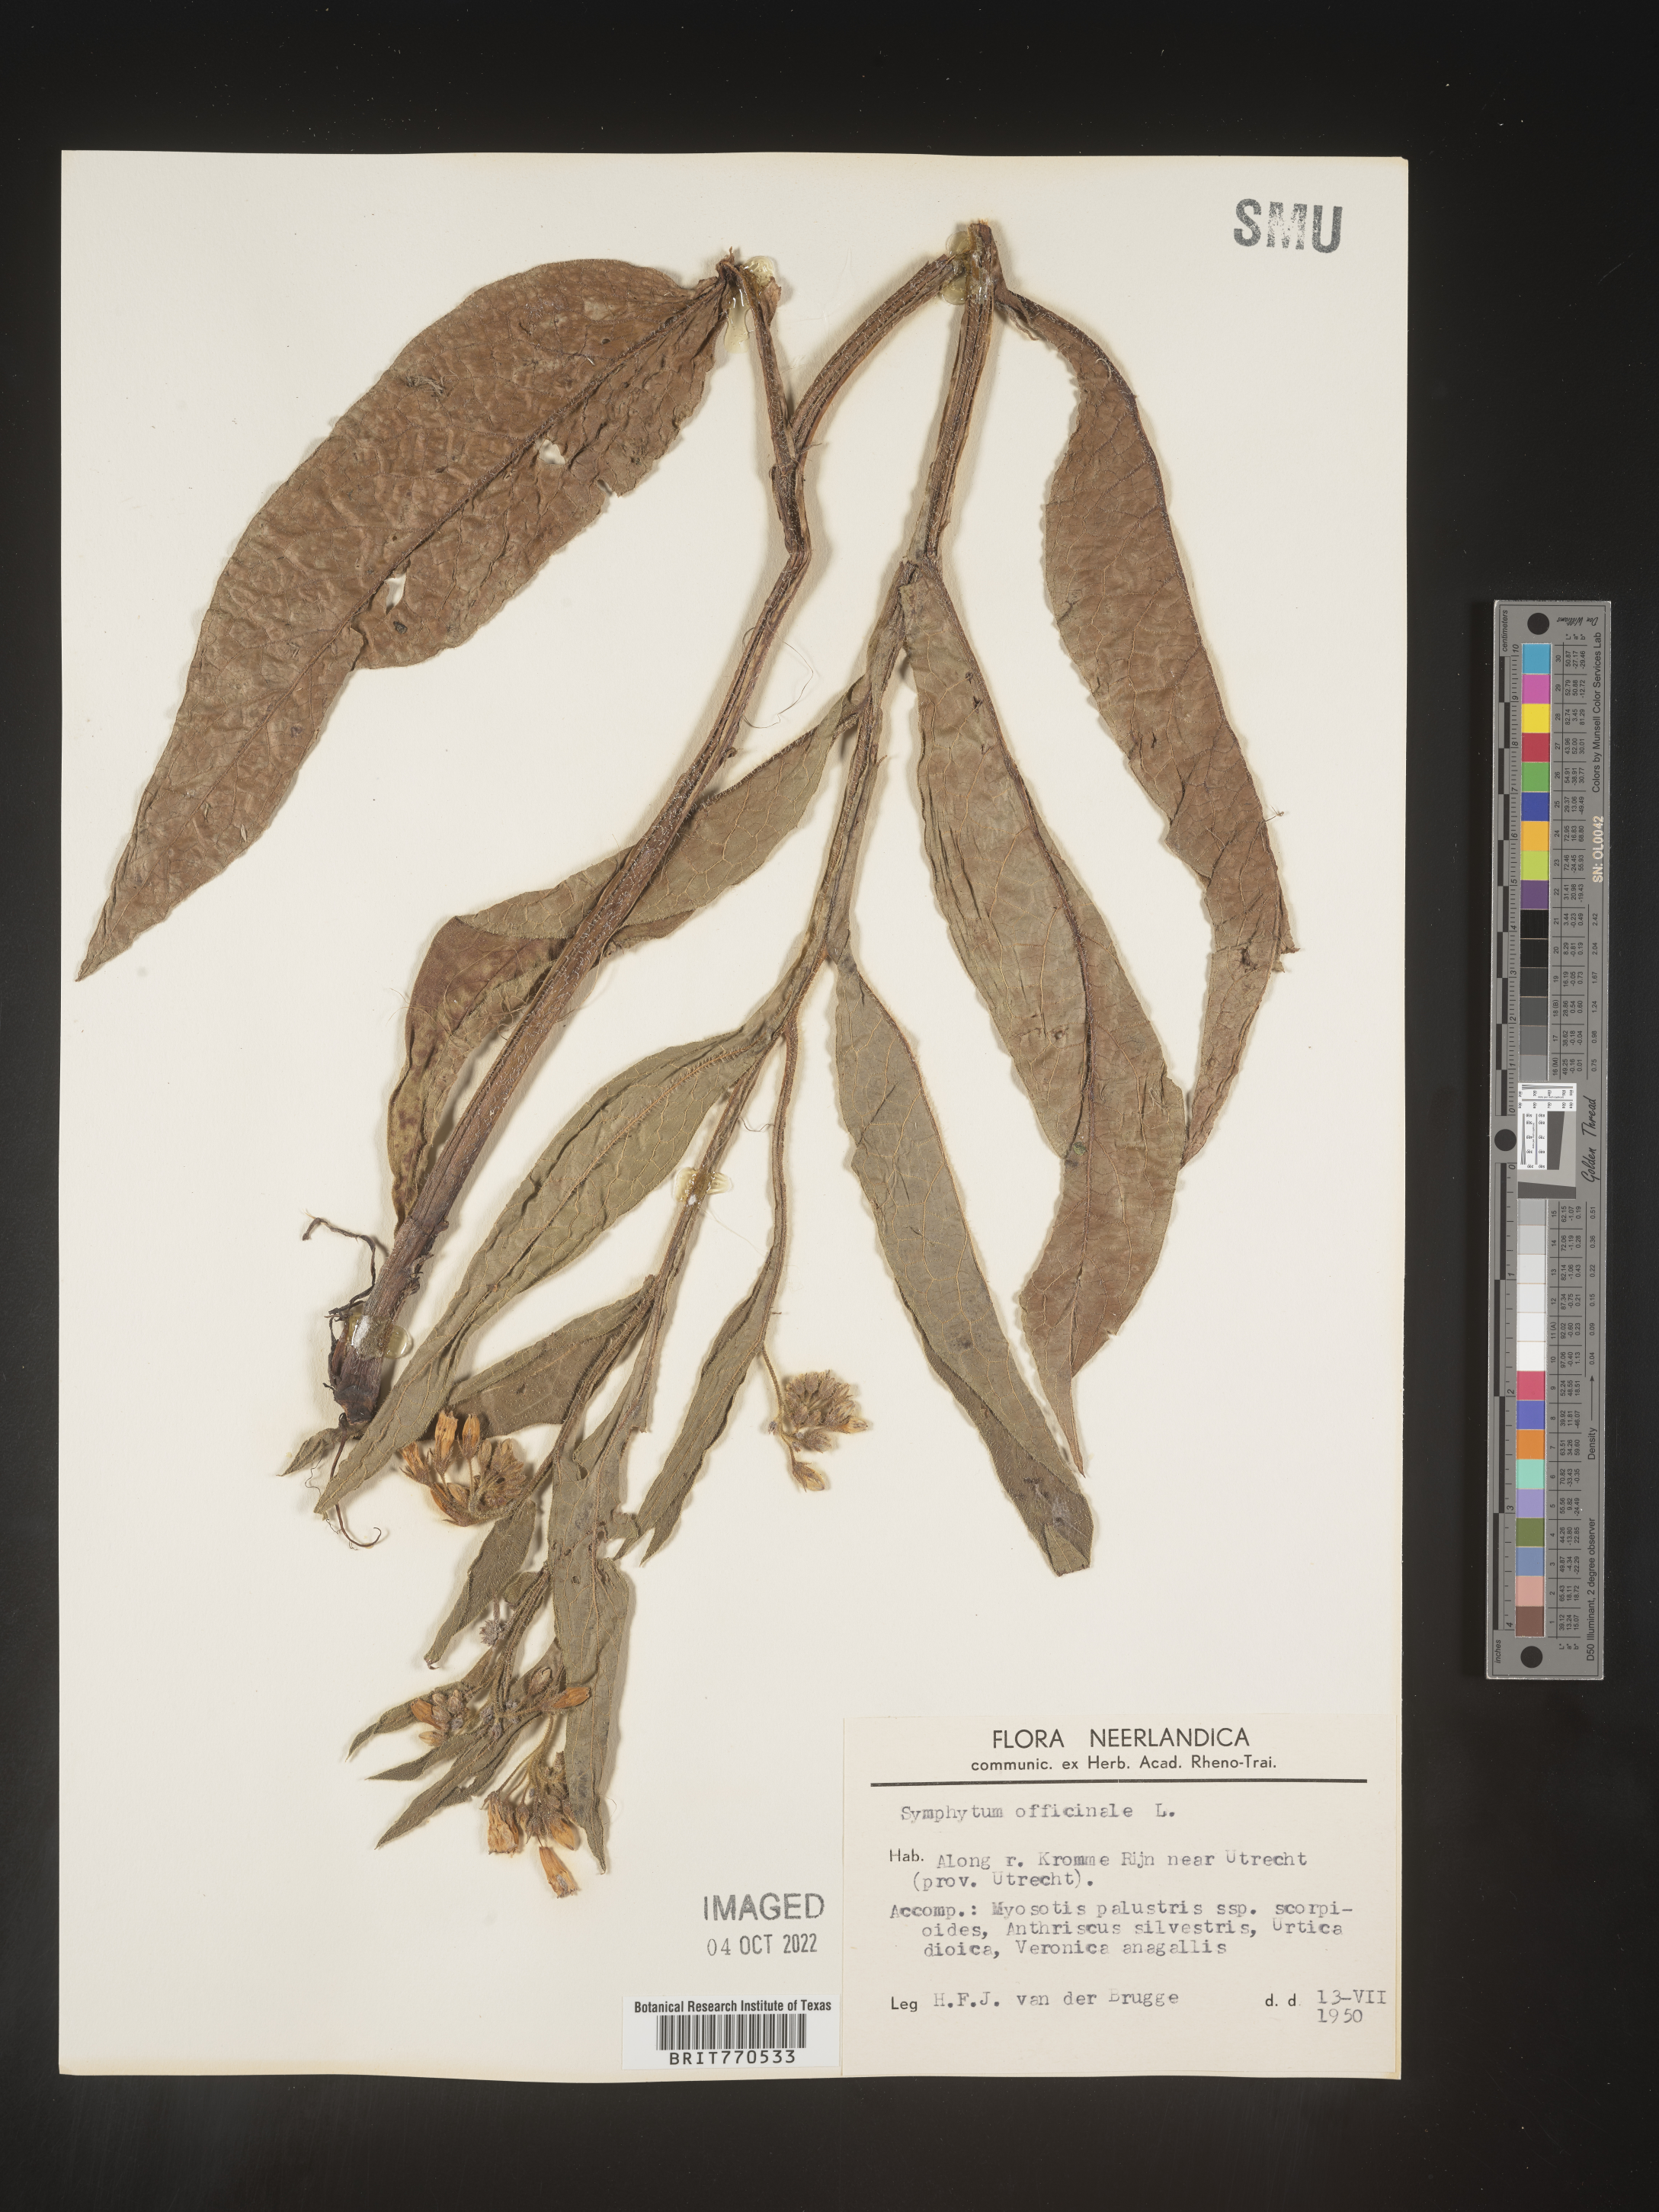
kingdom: Plantae
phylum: Tracheophyta
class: Magnoliopsida
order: Boraginales
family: Boraginaceae
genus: Symphytum
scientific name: Symphytum
